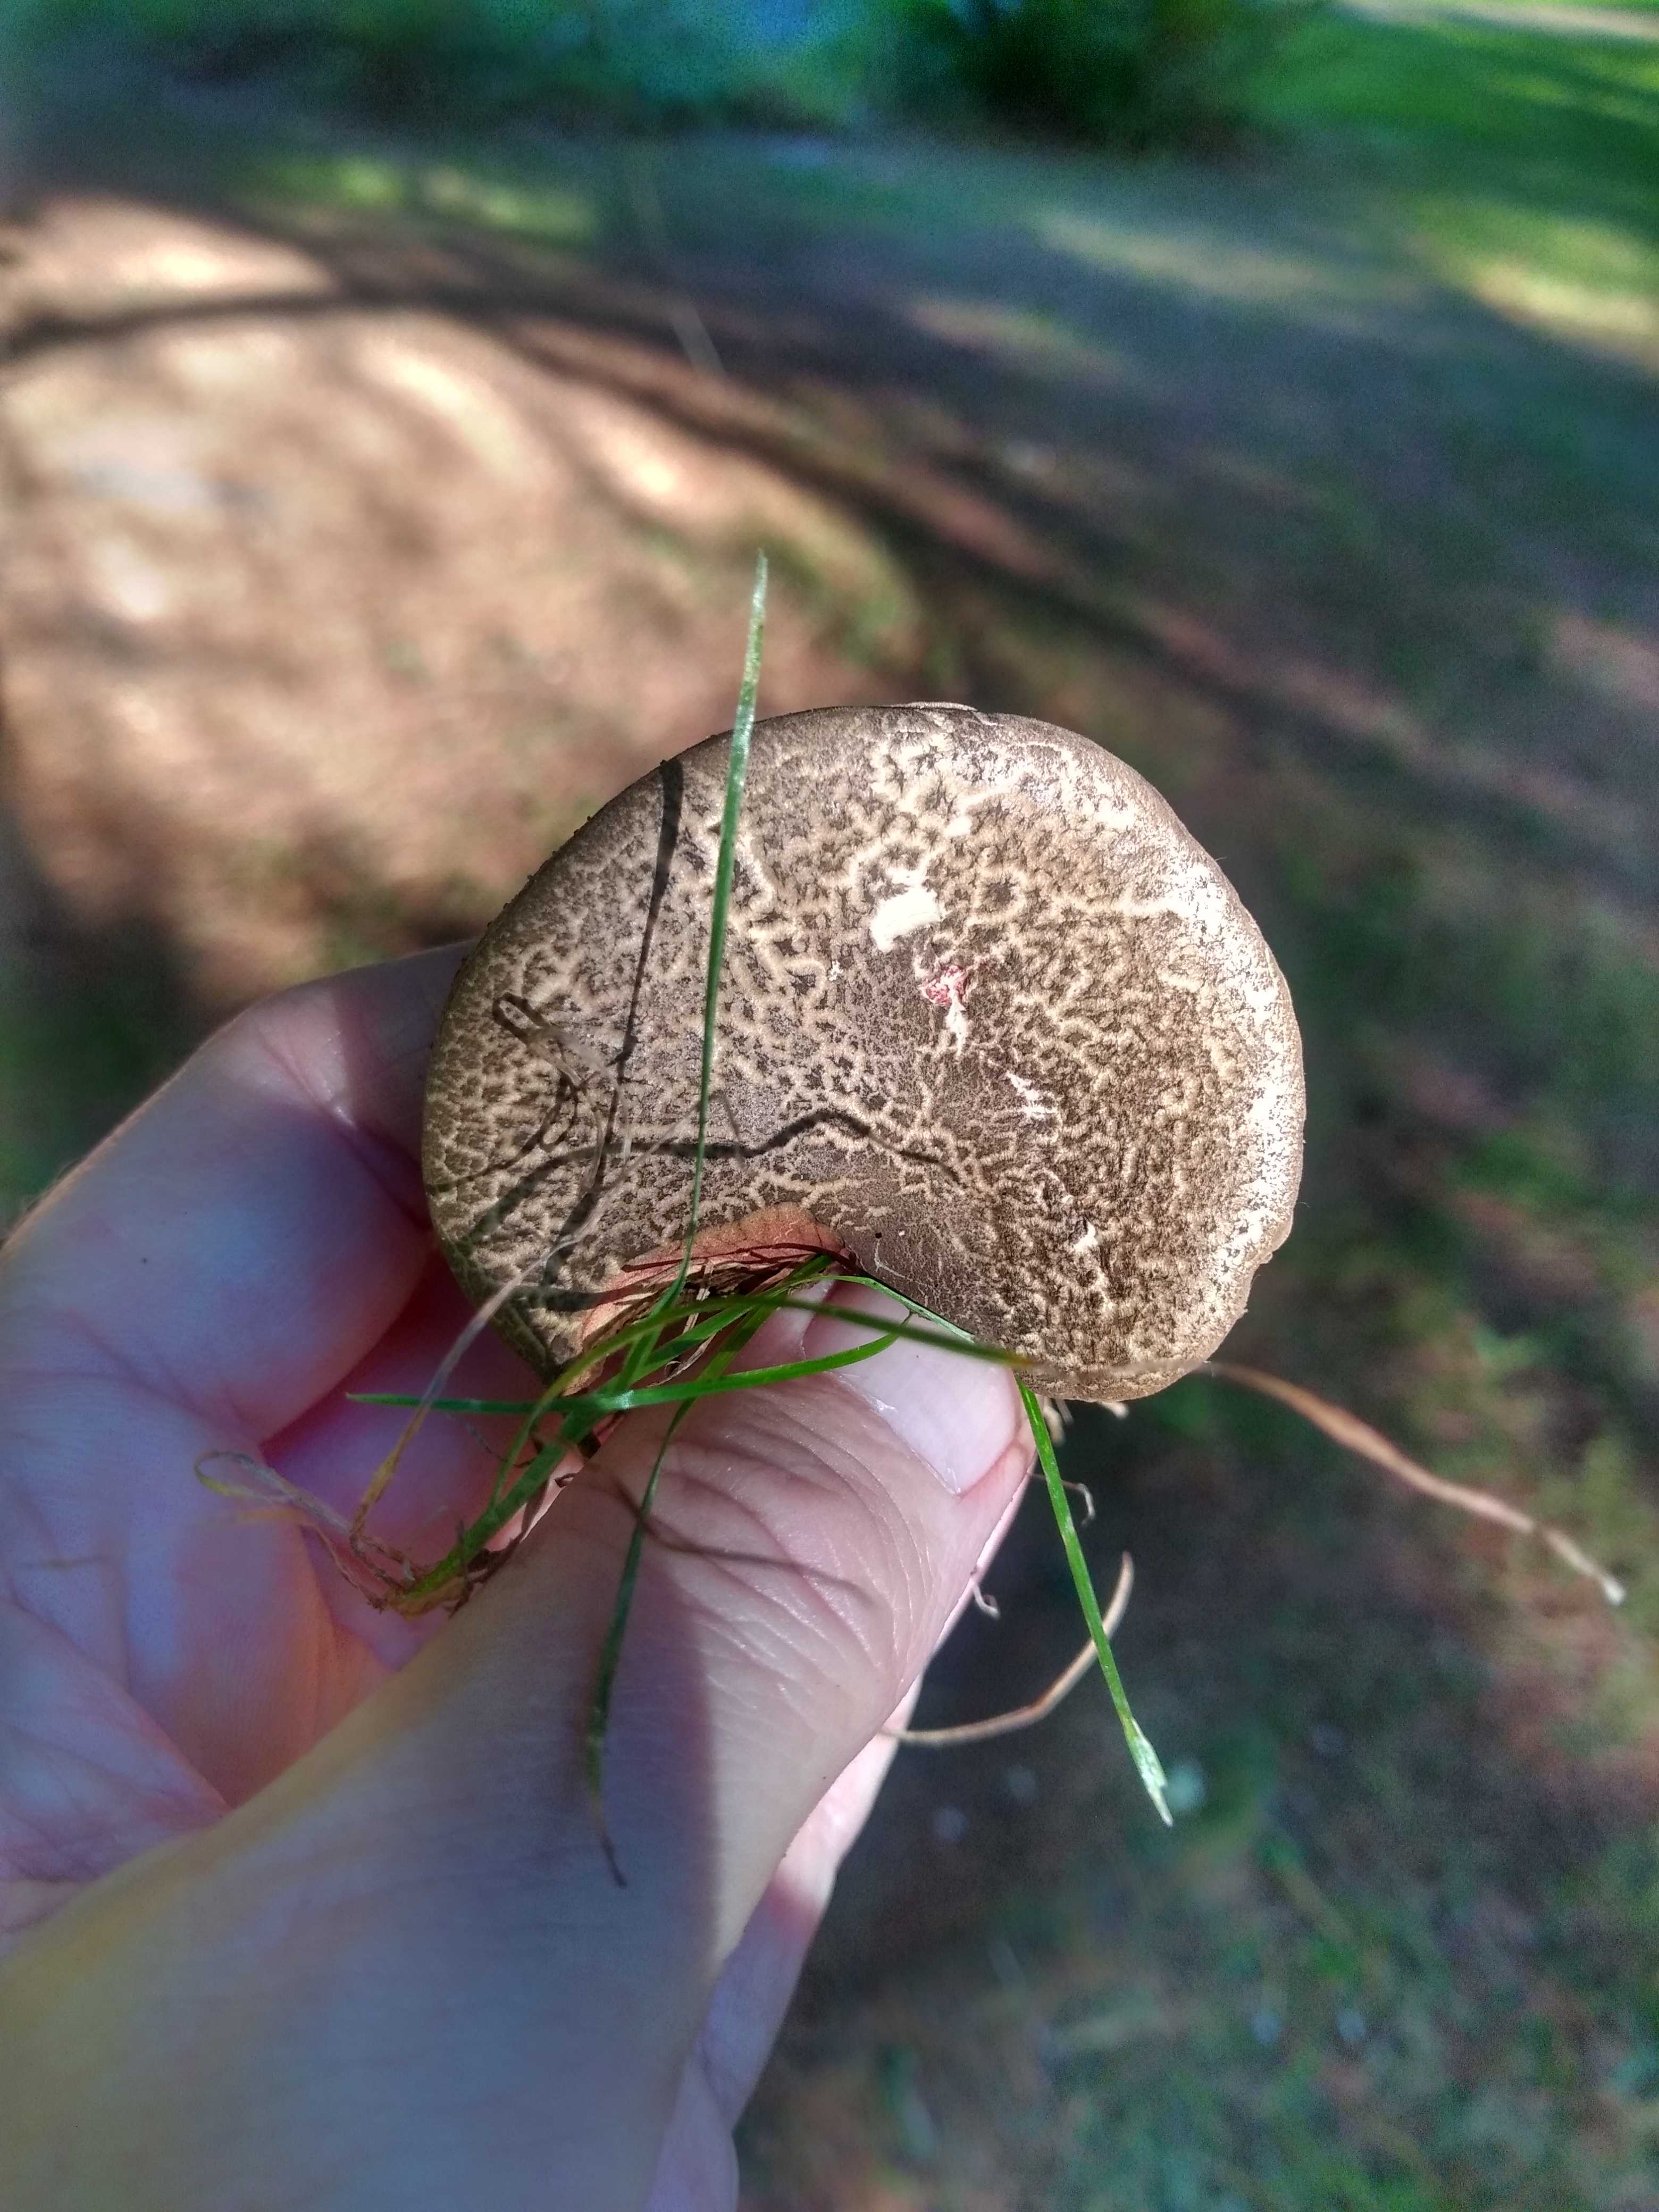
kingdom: Fungi
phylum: Basidiomycota
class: Agaricomycetes
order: Boletales
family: Boletaceae
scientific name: Boletaceae
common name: rørhatfamilien
